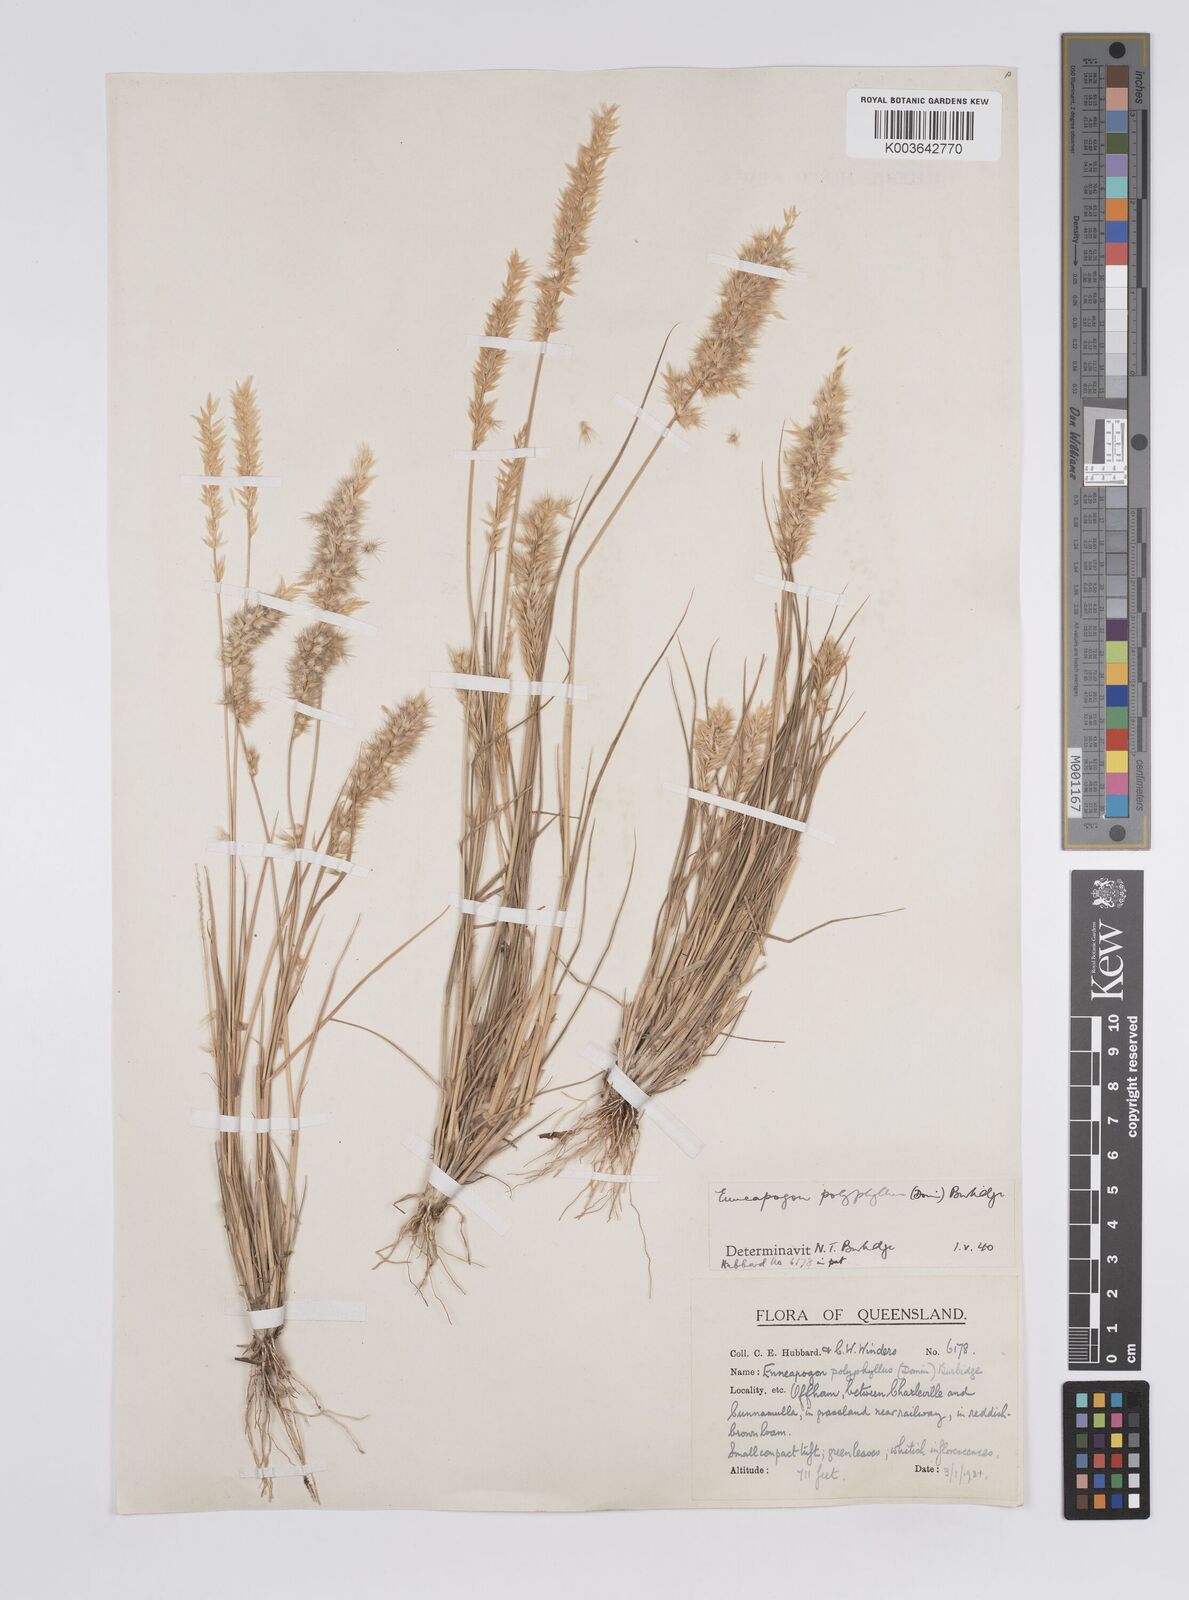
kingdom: Plantae
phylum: Tracheophyta
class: Liliopsida
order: Poales
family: Poaceae
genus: Enneapogon
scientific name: Enneapogon polyphyllus
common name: Leafy nineawn
